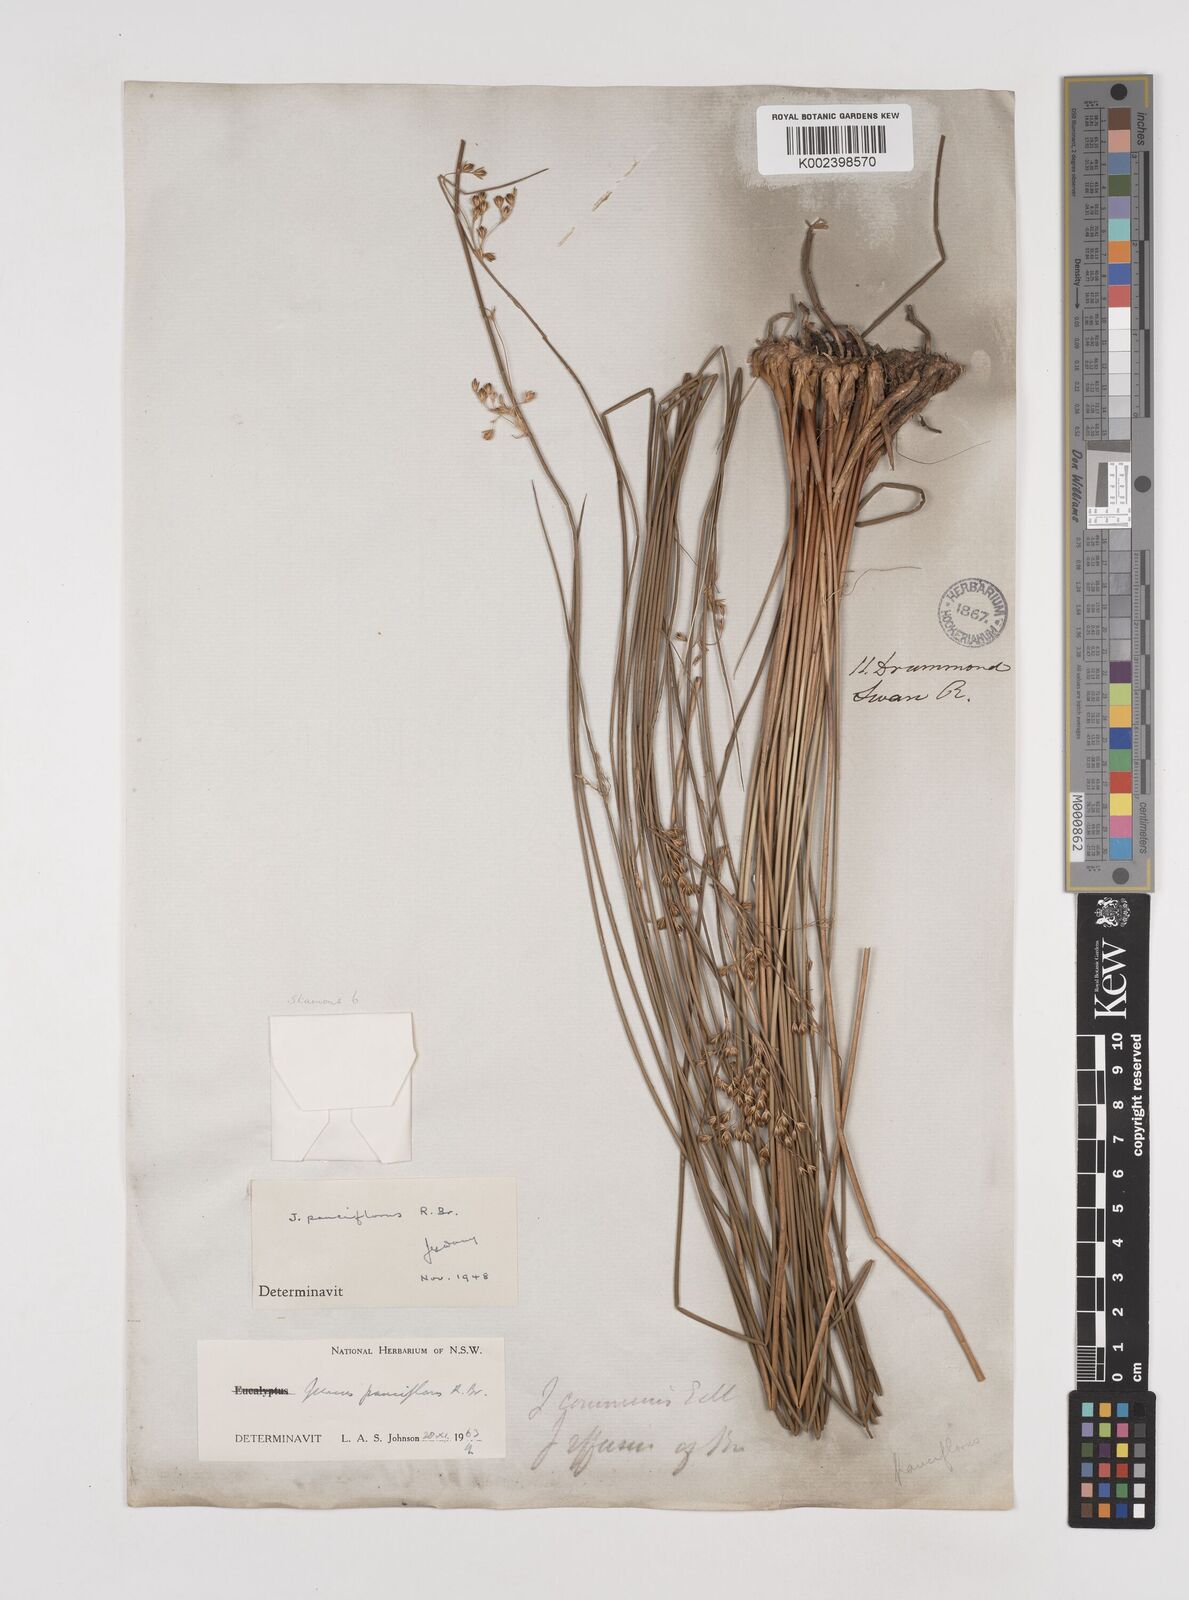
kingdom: Plantae
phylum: Tracheophyta
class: Liliopsida
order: Poales
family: Juncaceae
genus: Juncus
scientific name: Juncus pauciflorus
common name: Loose-flowered rush
